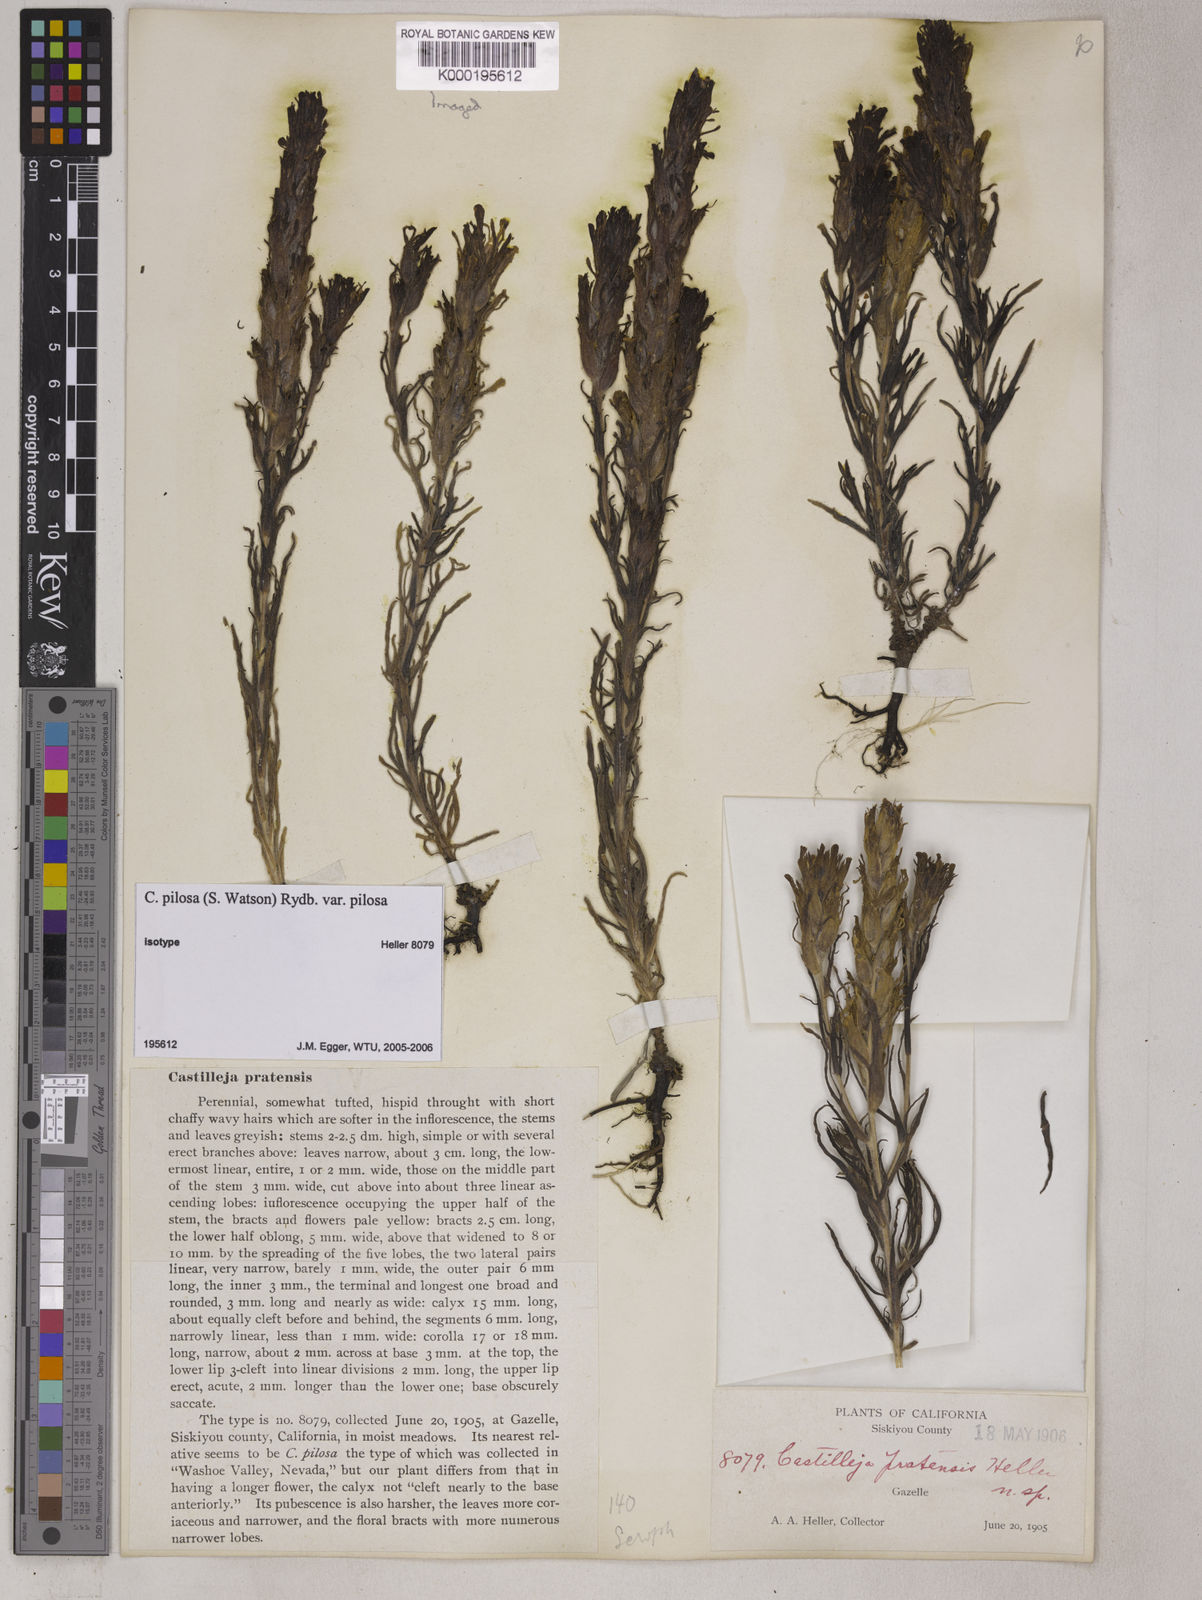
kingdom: Plantae
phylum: Tracheophyta
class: Magnoliopsida
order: Lamiales
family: Orobanchaceae
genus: Castilleja
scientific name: Castilleja pilosa
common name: Hairy paintbrush
